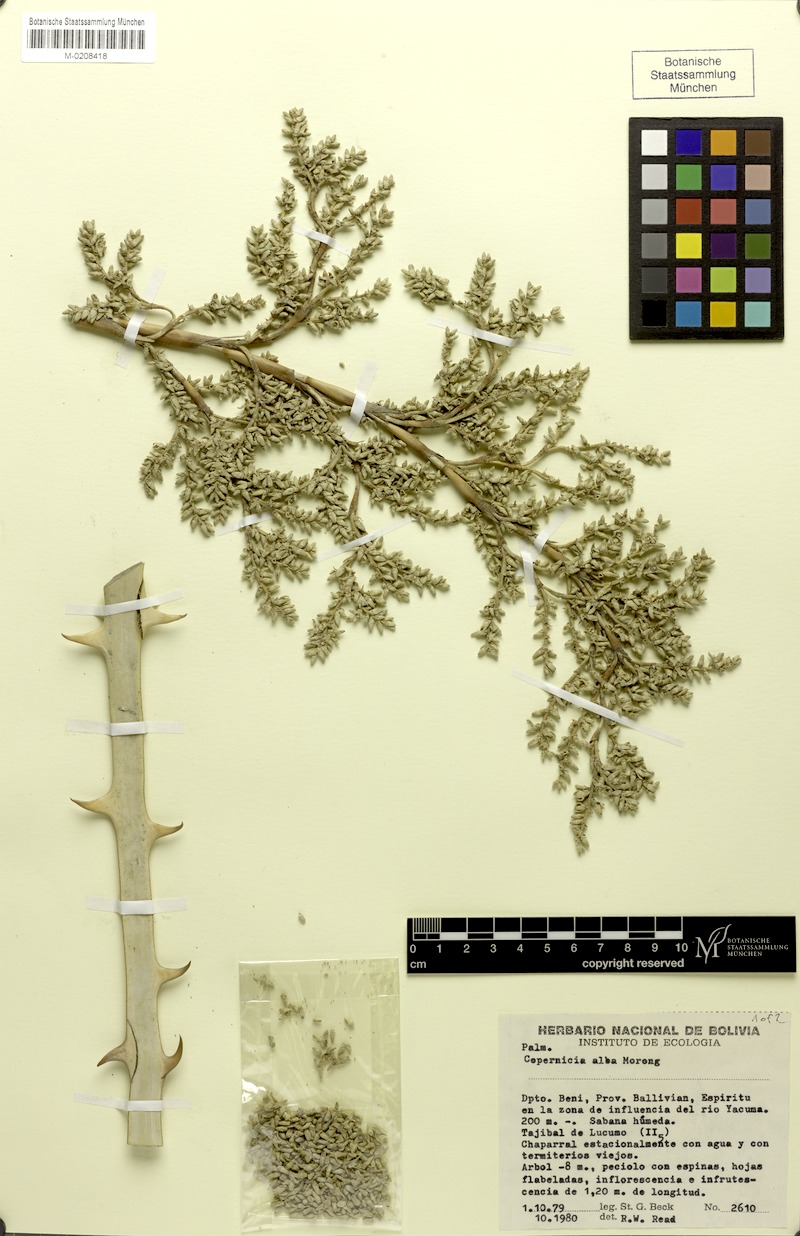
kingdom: Plantae
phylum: Tracheophyta
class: Liliopsida
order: Arecales
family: Arecaceae
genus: Copernicia
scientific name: Copernicia alba
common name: Caranday palm
